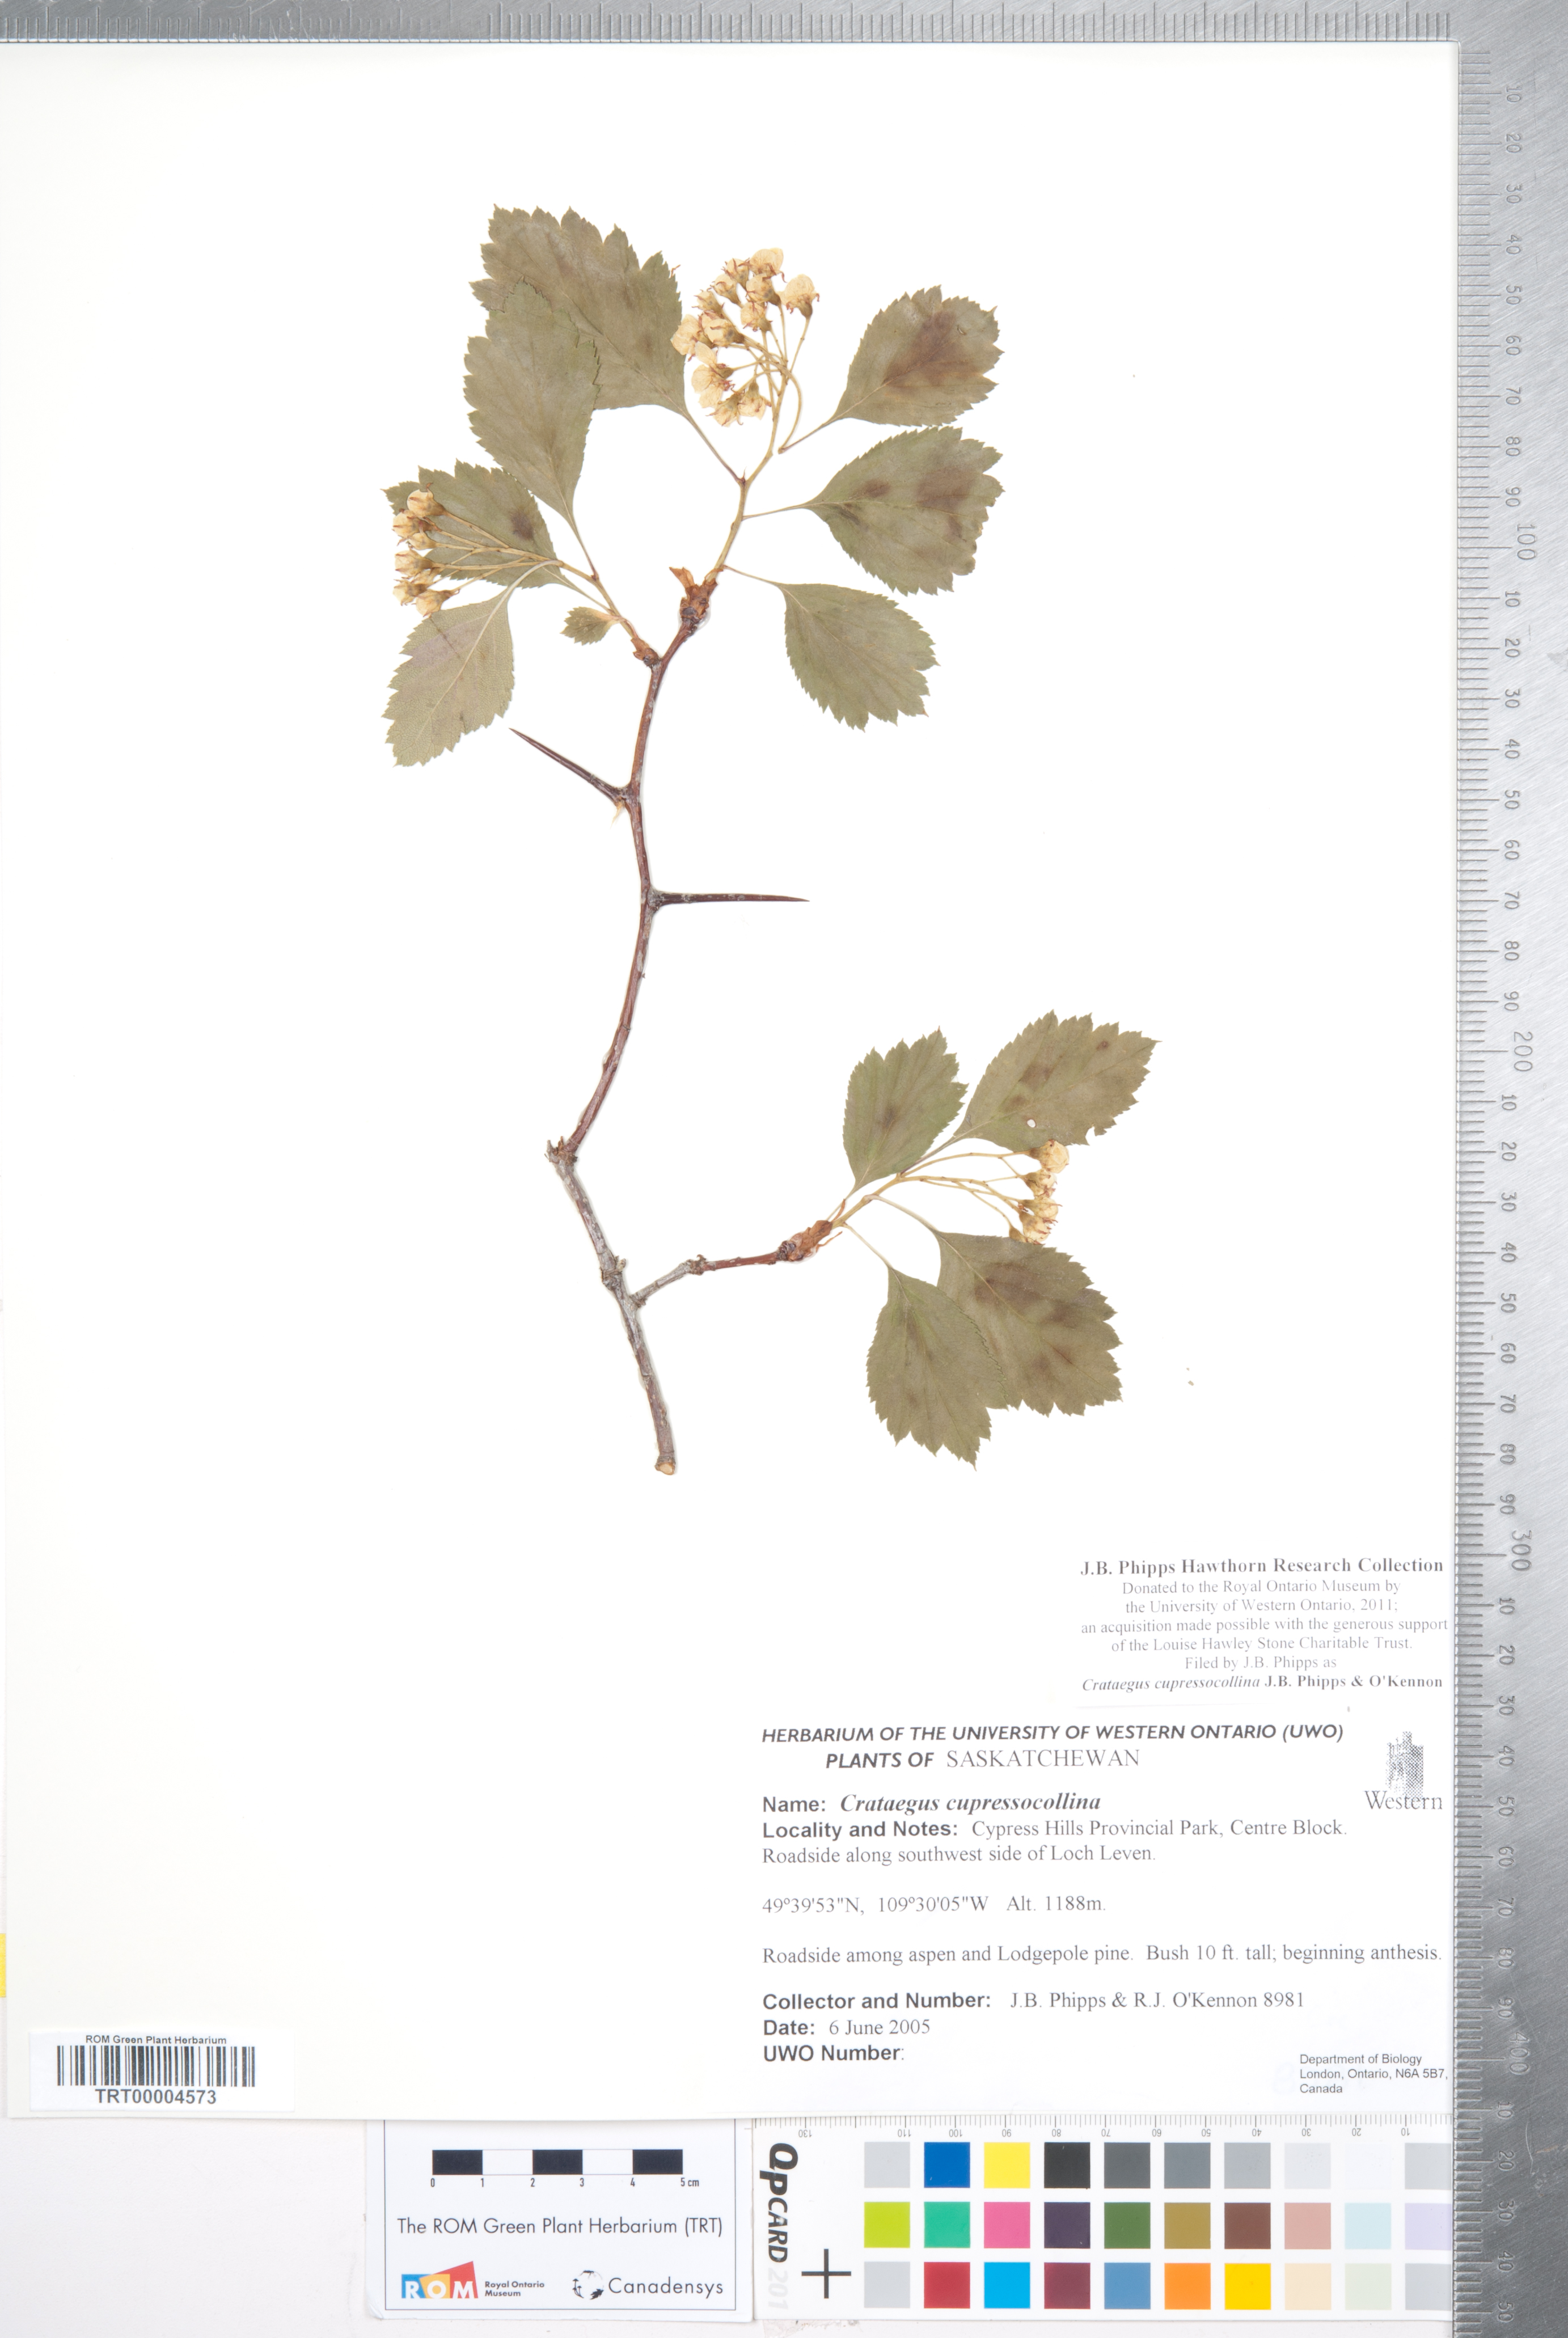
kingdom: Plantae
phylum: Tracheophyta
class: Magnoliopsida
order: Rosales
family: Rosaceae
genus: Crataegus
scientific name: Crataegus cupressocollina
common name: Cypress hills hawthorn
